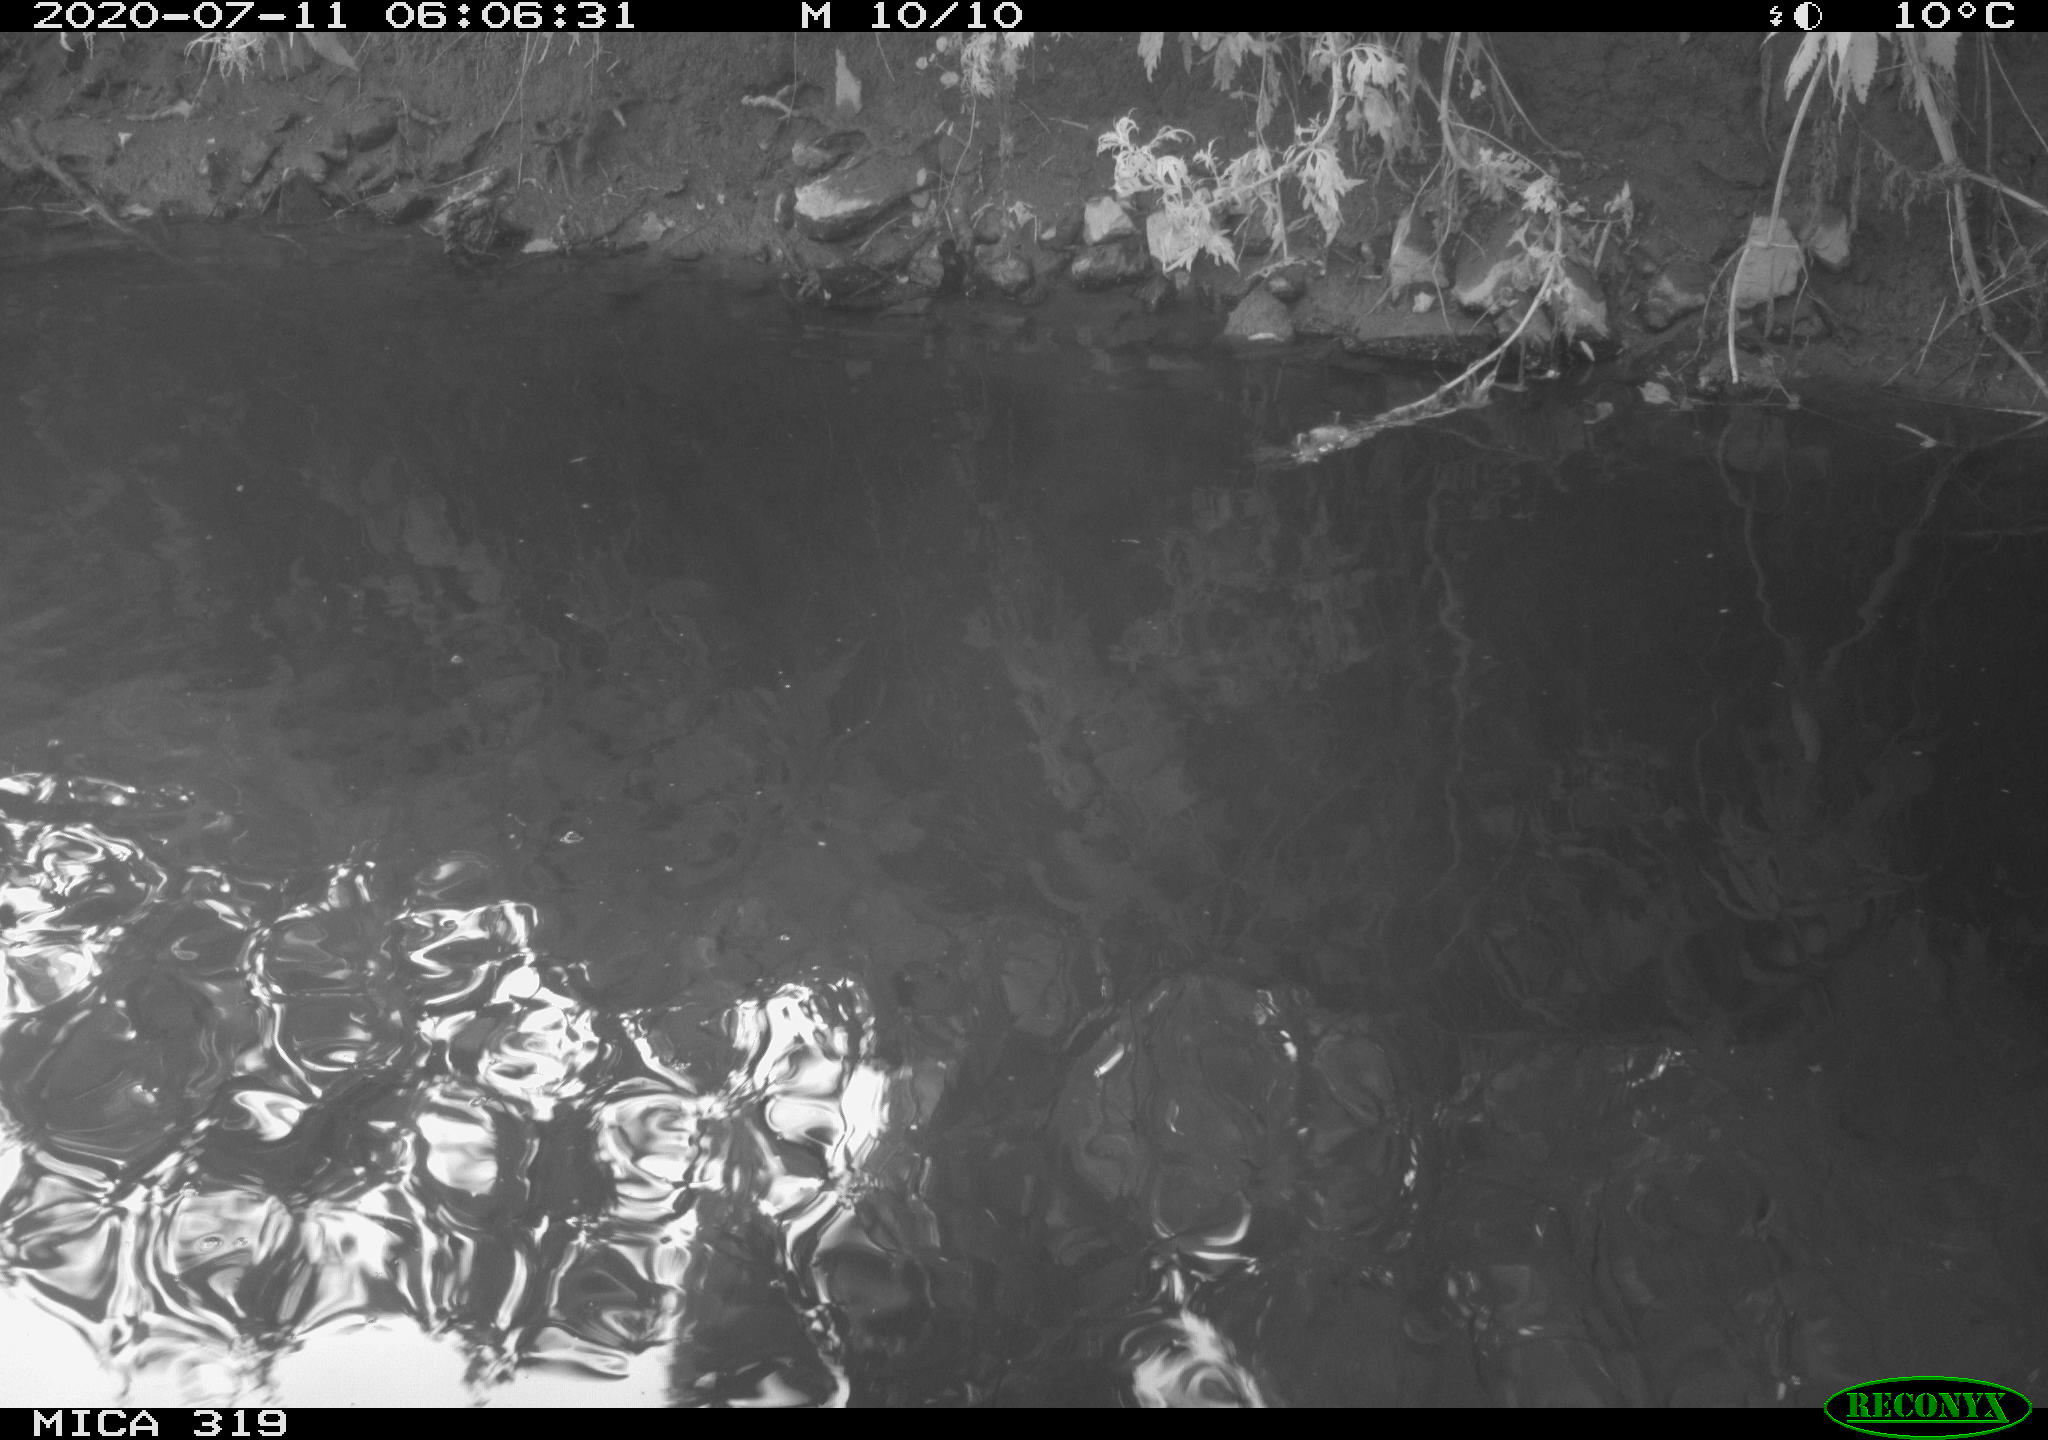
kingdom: Animalia
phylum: Chordata
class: Aves
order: Anseriformes
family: Anatidae
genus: Anas
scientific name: Anas platyrhynchos
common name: Mallard
